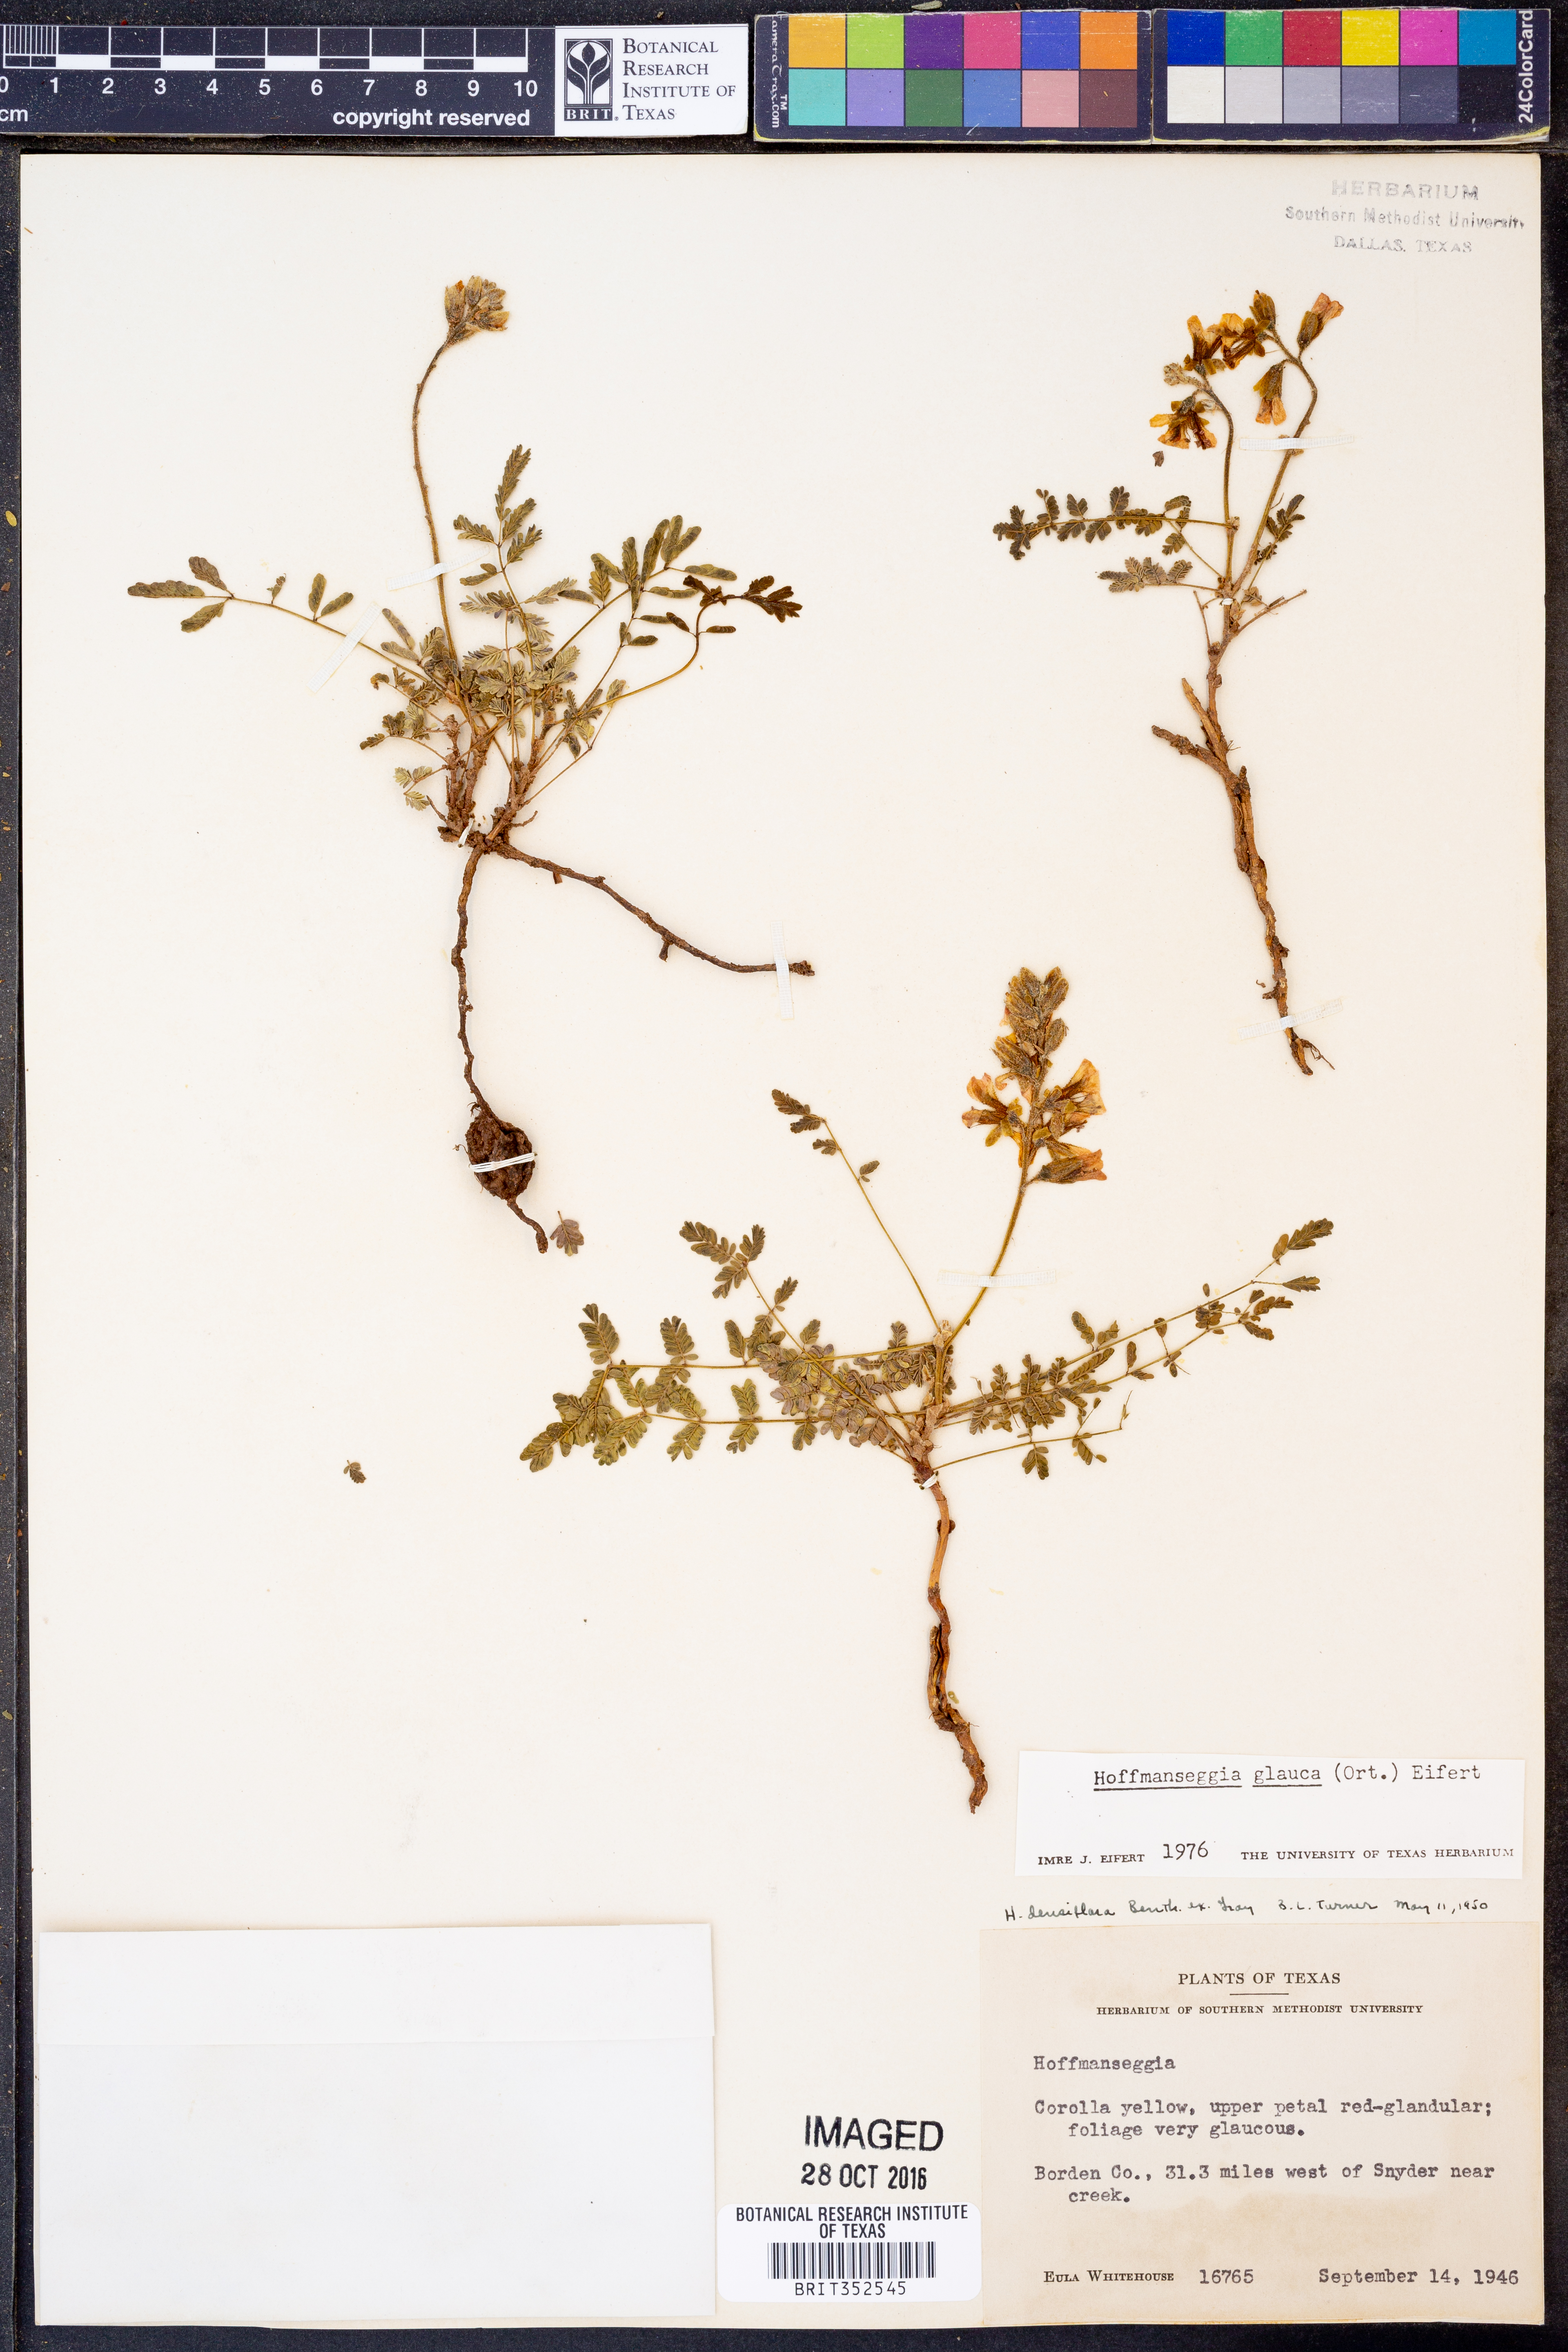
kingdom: Plantae
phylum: Tracheophyta
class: Magnoliopsida
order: Fabales
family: Fabaceae
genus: Hoffmannseggia
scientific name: Hoffmannseggia glauca
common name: Pignut
